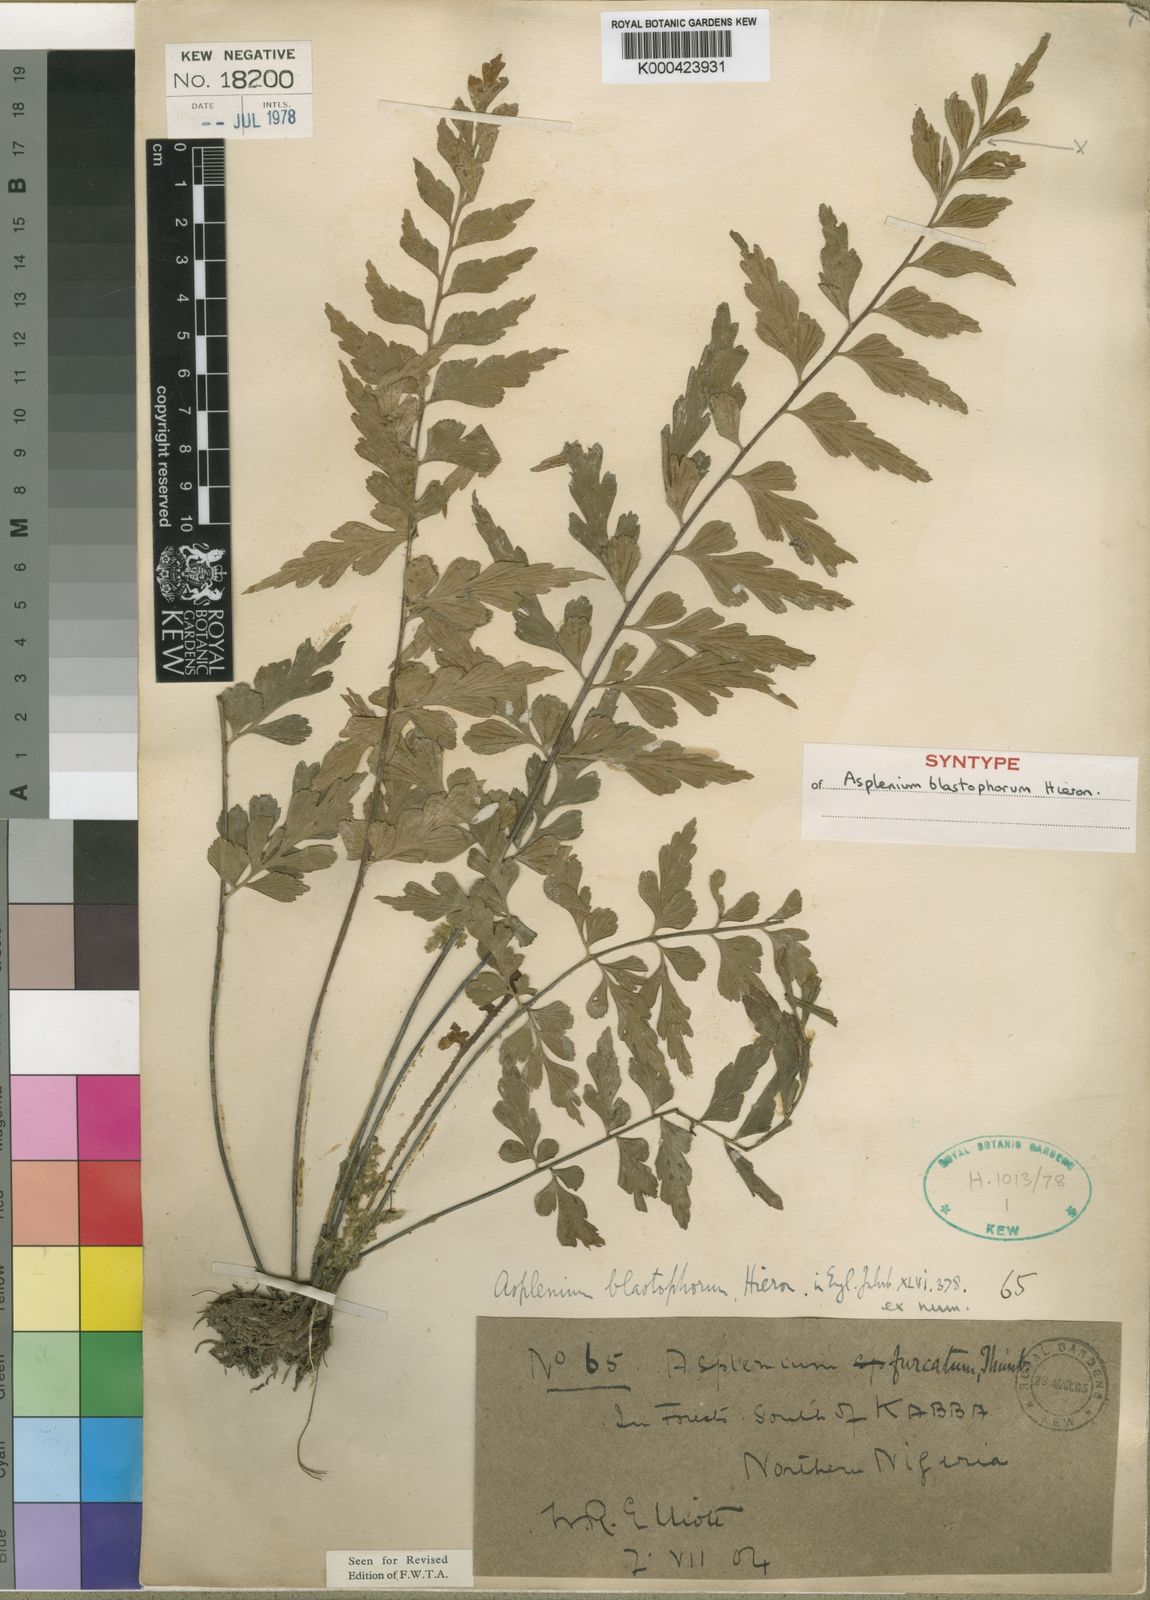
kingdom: Plantae
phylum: Tracheophyta
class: Polypodiopsida
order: Polypodiales
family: Aspleniaceae
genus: Asplenium
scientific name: Asplenium blastophorum
